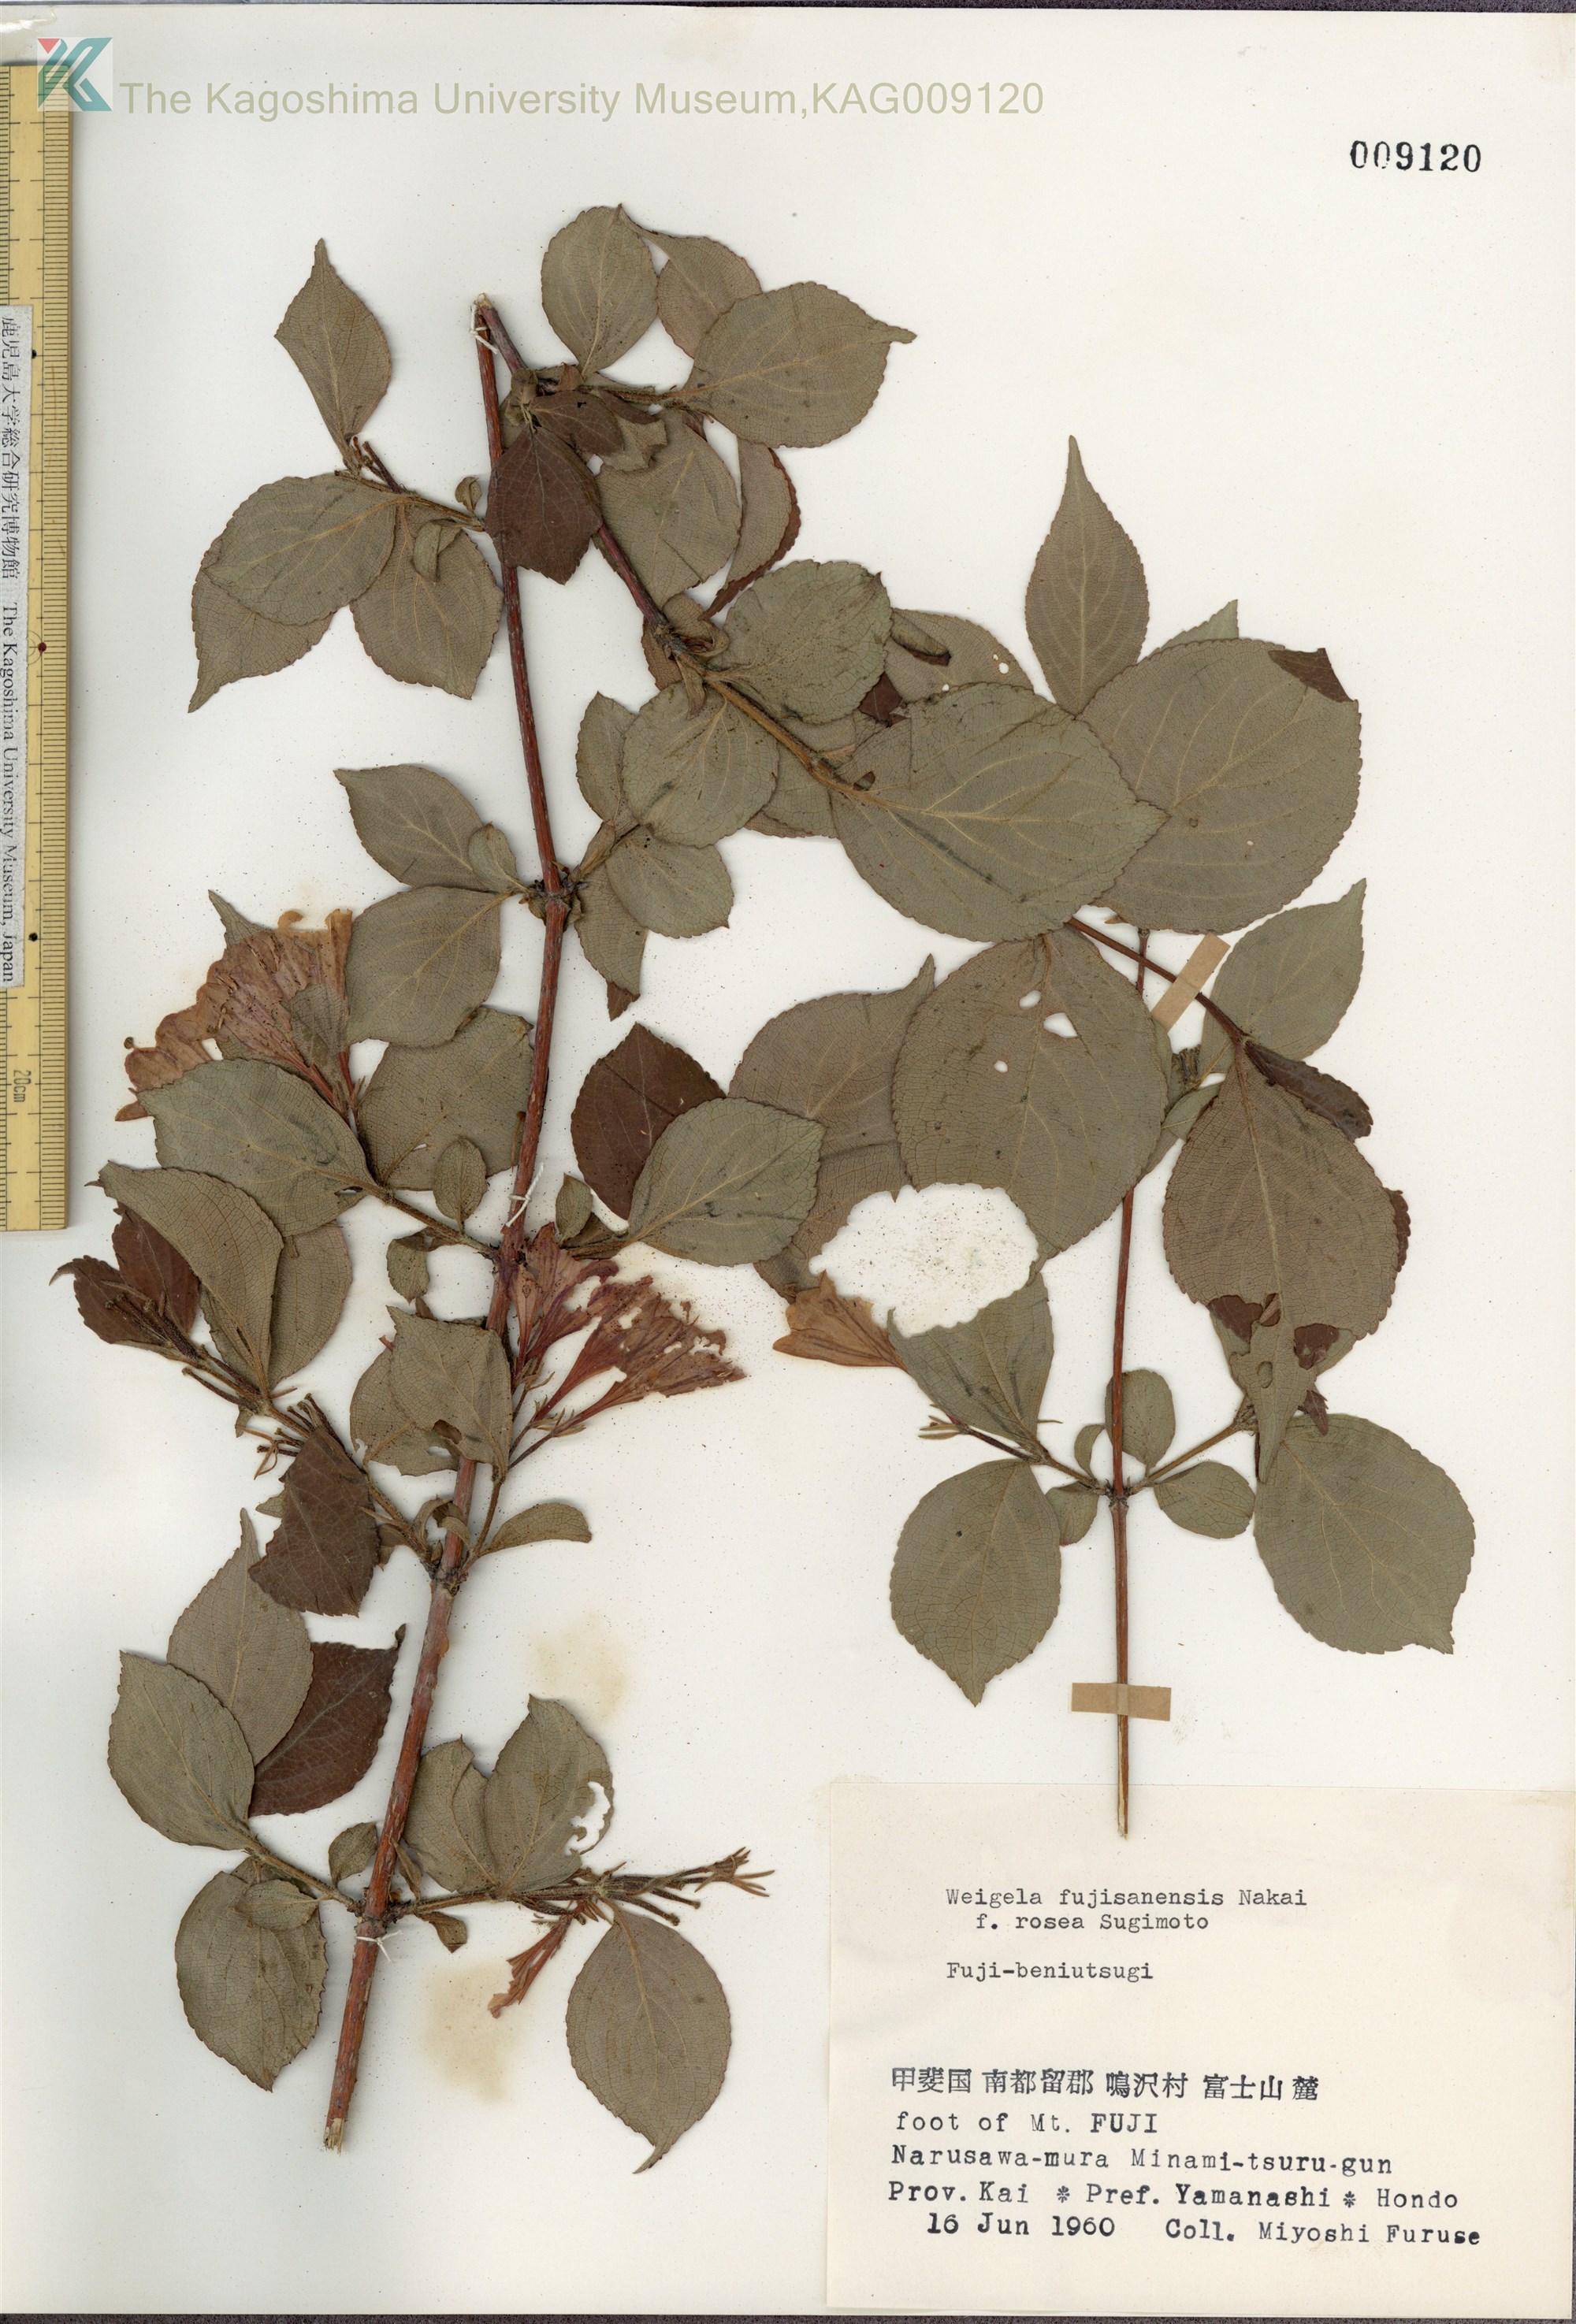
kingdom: Plantae
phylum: Tracheophyta
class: Magnoliopsida
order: Dipsacales
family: Caprifoliaceae
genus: Weigela
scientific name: Weigela decora
